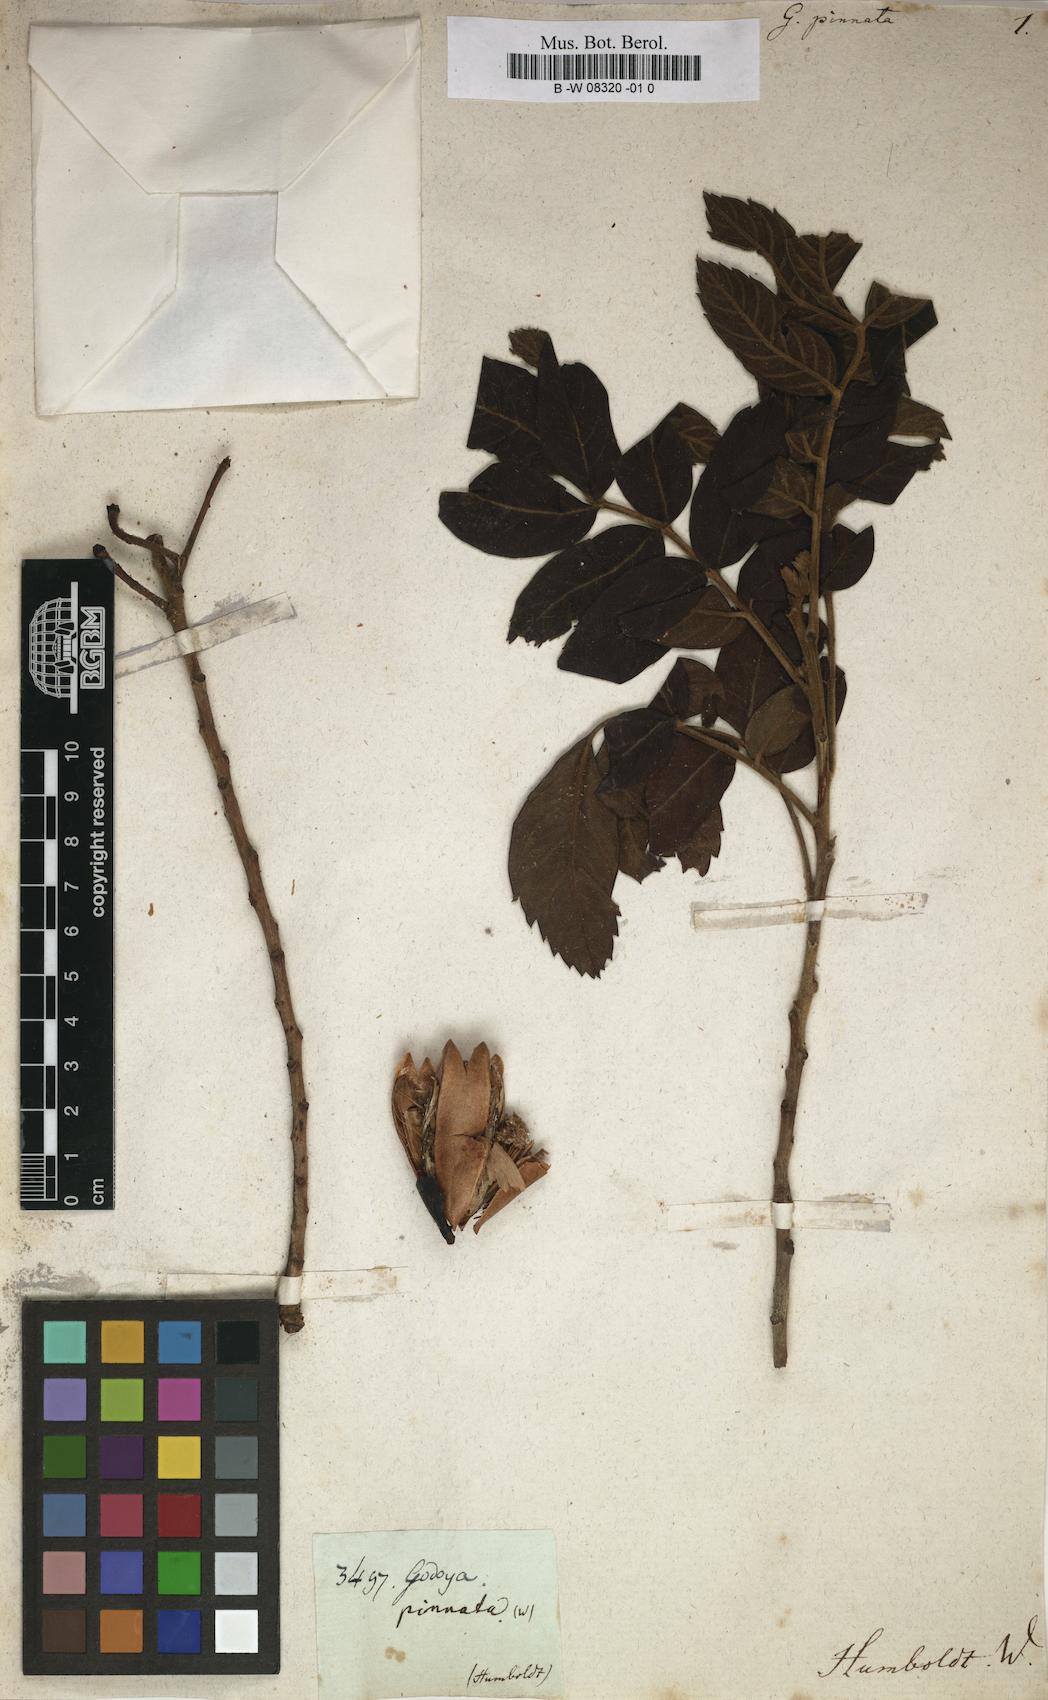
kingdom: Plantae
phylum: Tracheophyta
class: Magnoliopsida
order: Malpighiales
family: Ochnaceae
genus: Godoya
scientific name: Godoya
